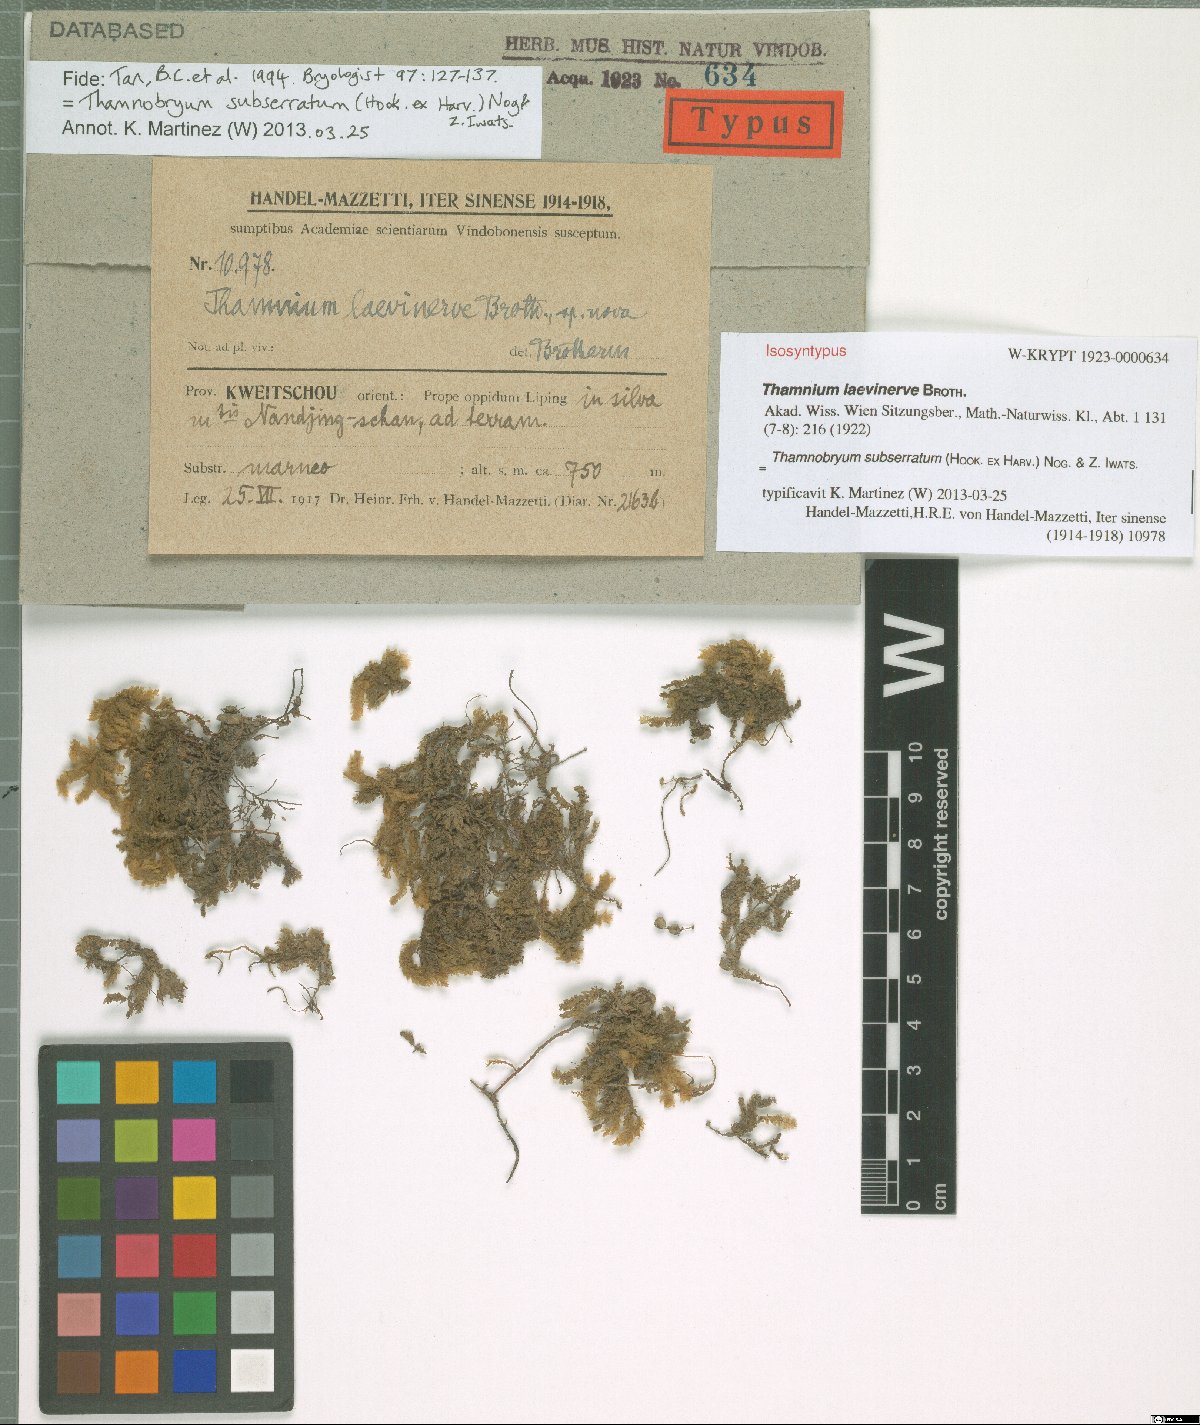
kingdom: Plantae
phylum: Bryophyta
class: Bryopsida
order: Hypnales
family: Neckeraceae
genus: Thamnobryum
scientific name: Thamnobryum neckeroides
